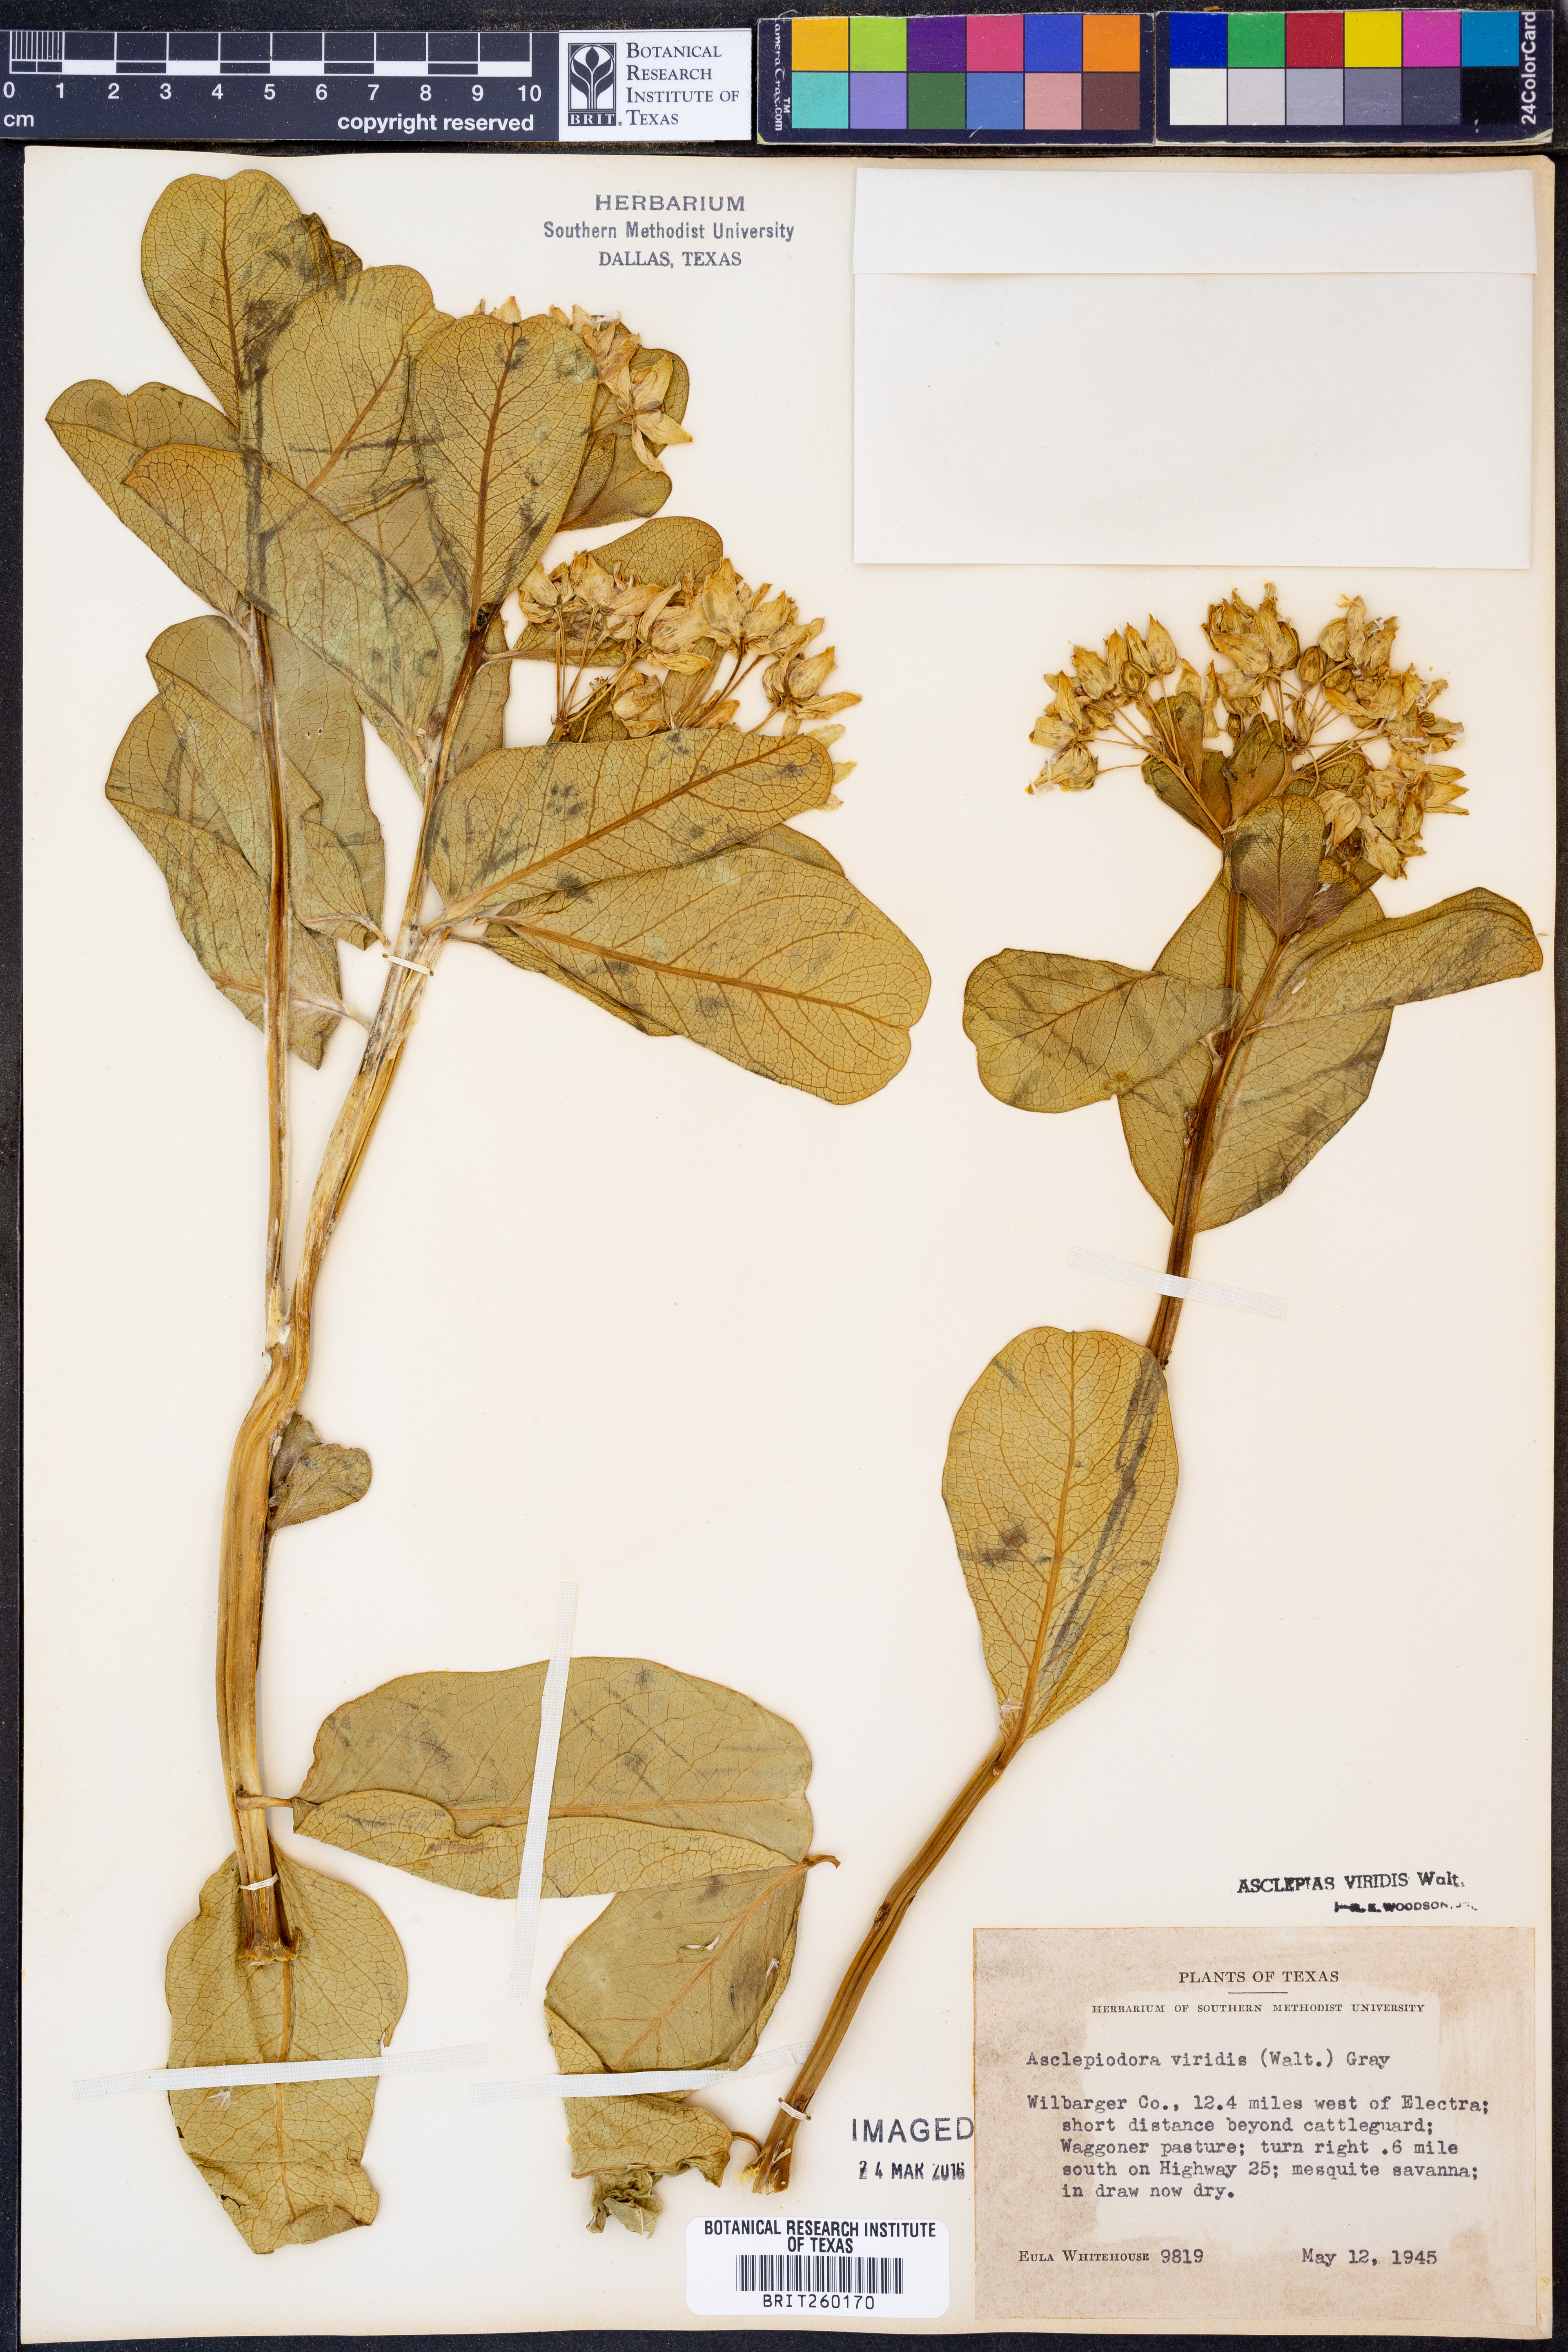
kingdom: Plantae
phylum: Tracheophyta
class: Magnoliopsida
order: Gentianales
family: Apocynaceae
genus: Asclepias
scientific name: Asclepias viridis
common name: Antelope-horns
